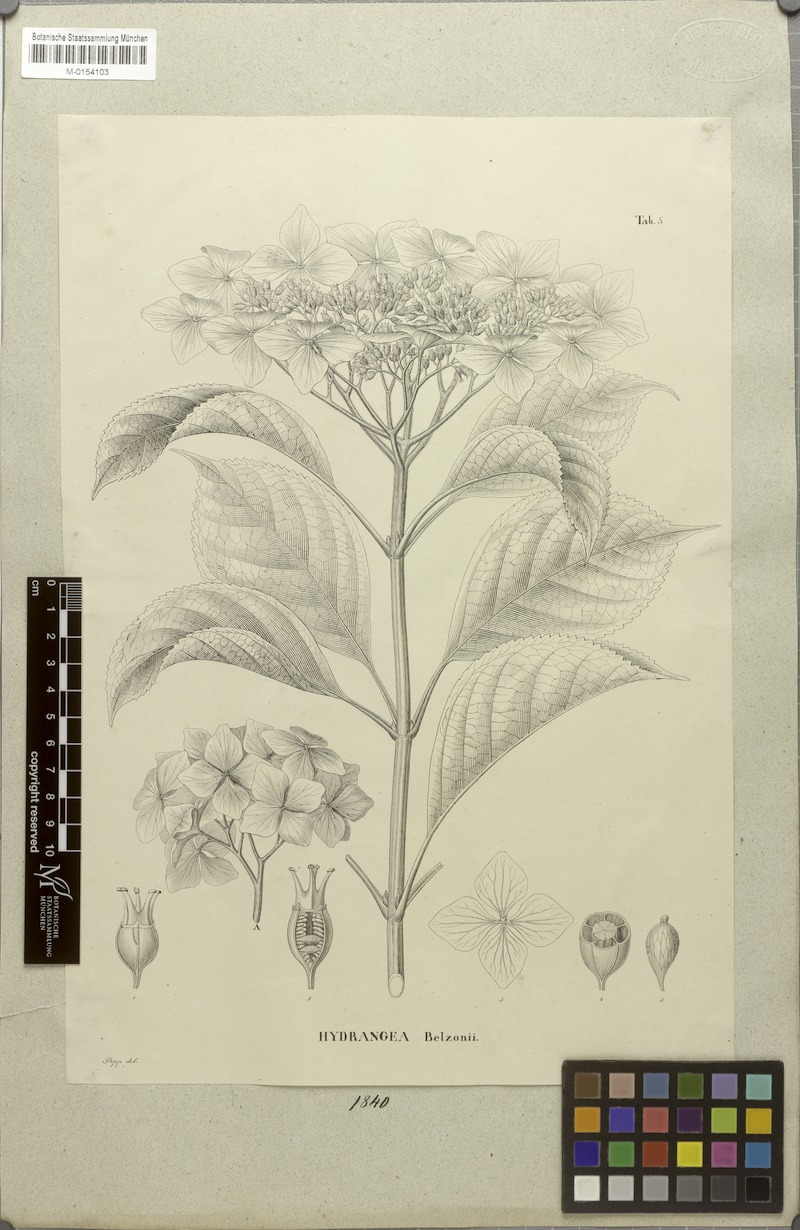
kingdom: Plantae
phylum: Tracheophyta
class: Magnoliopsida
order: Cornales
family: Hydrangeaceae
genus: Hydrangea
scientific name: Hydrangea serrata
